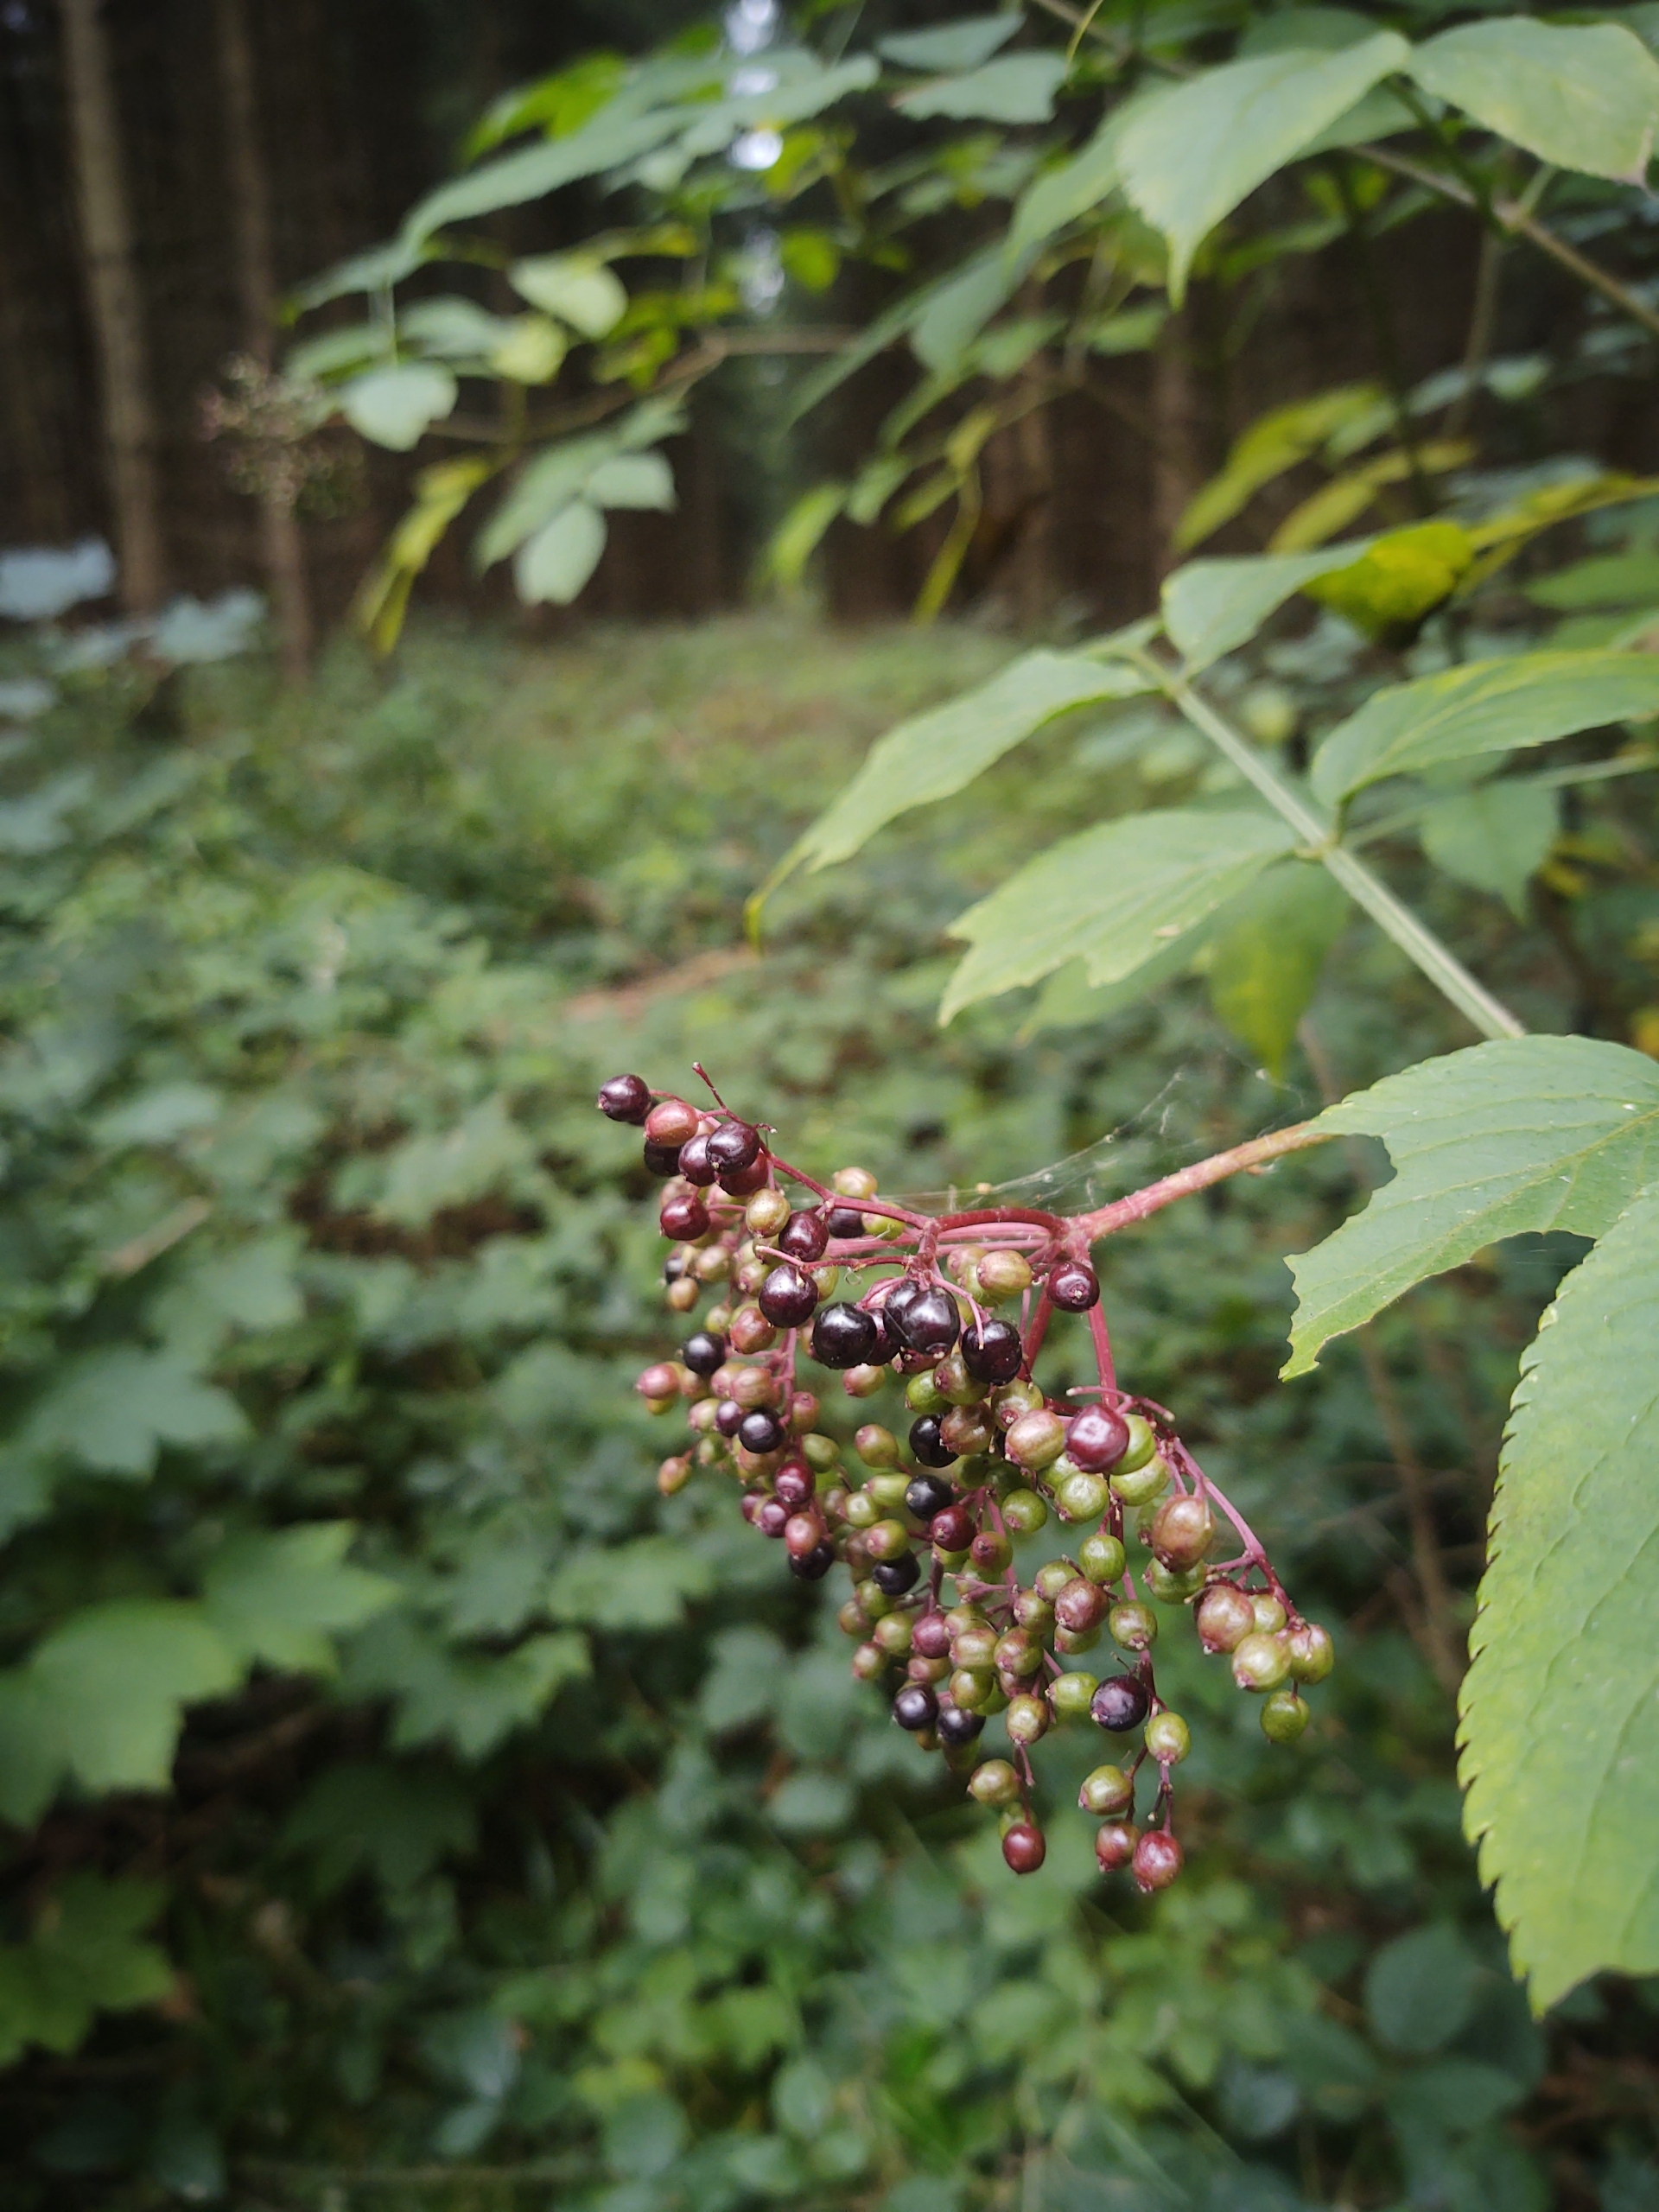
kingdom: Plantae
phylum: Tracheophyta
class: Magnoliopsida
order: Dipsacales
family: Viburnaceae
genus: Sambucus
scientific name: Sambucus nigra
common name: Almindelig hyld
